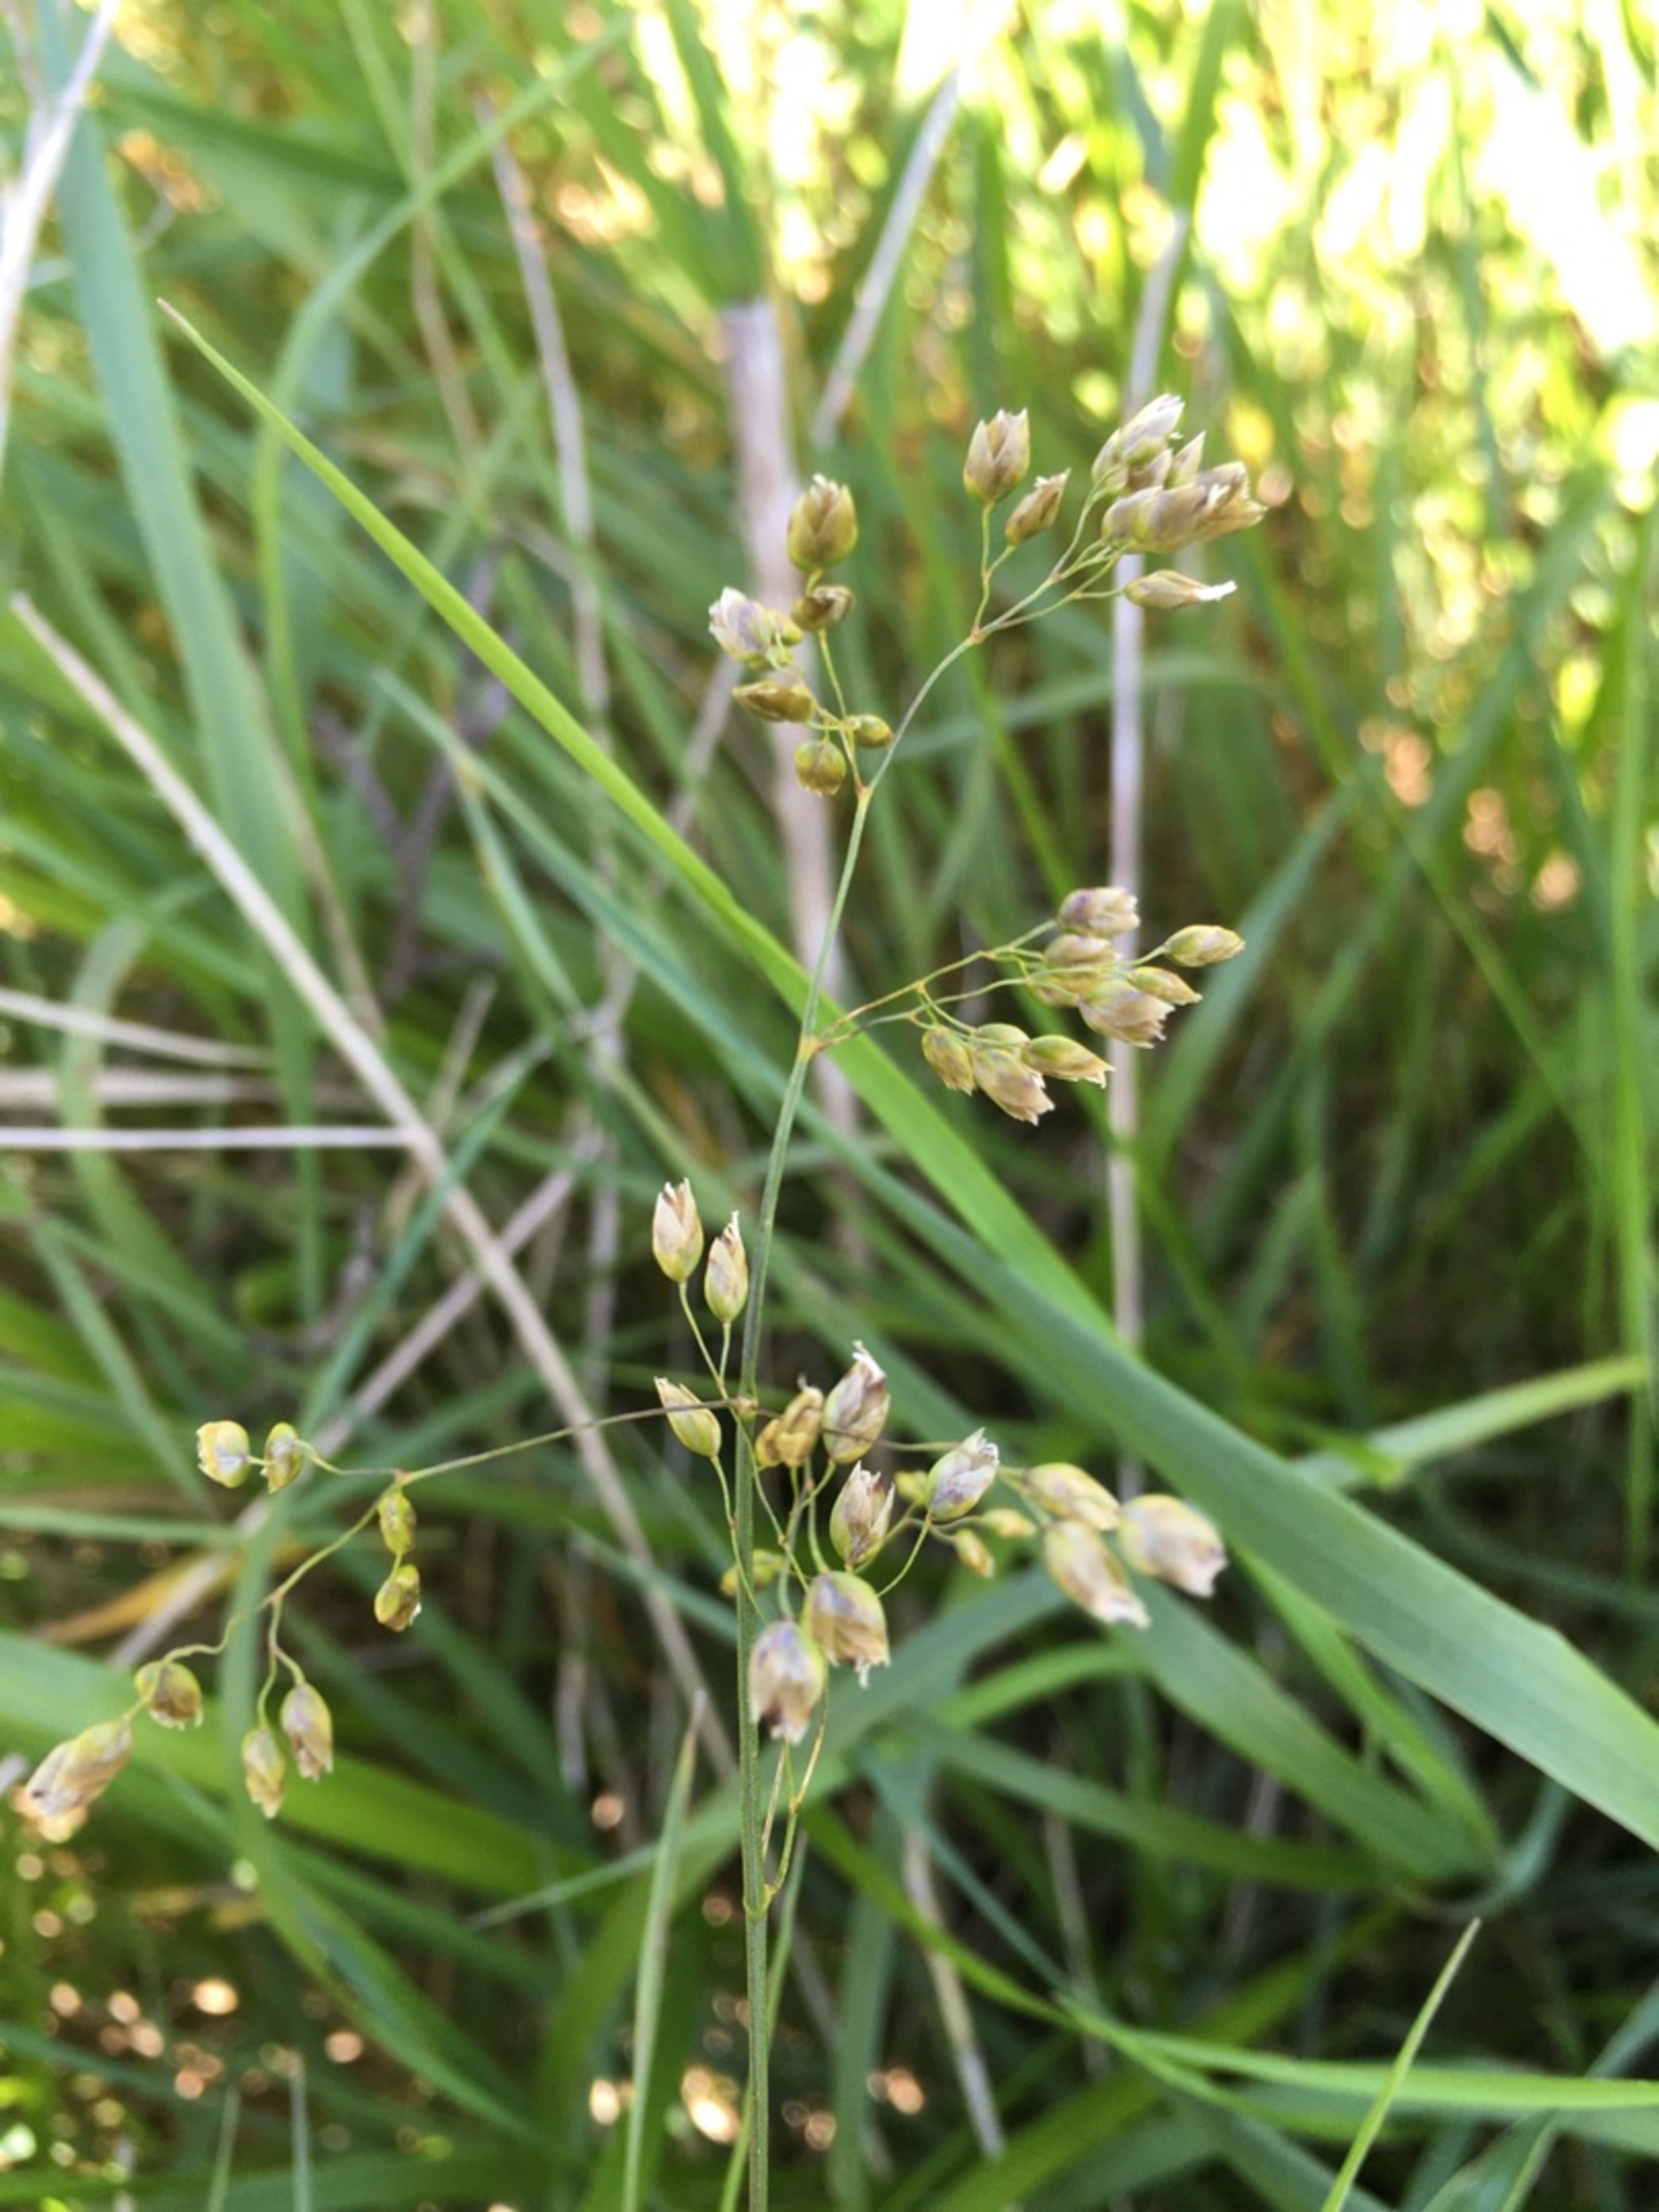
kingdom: Plantae
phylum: Tracheophyta
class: Liliopsida
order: Poales
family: Poaceae
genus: Anthoxanthum
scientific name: Anthoxanthum nitens
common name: Festgræs
